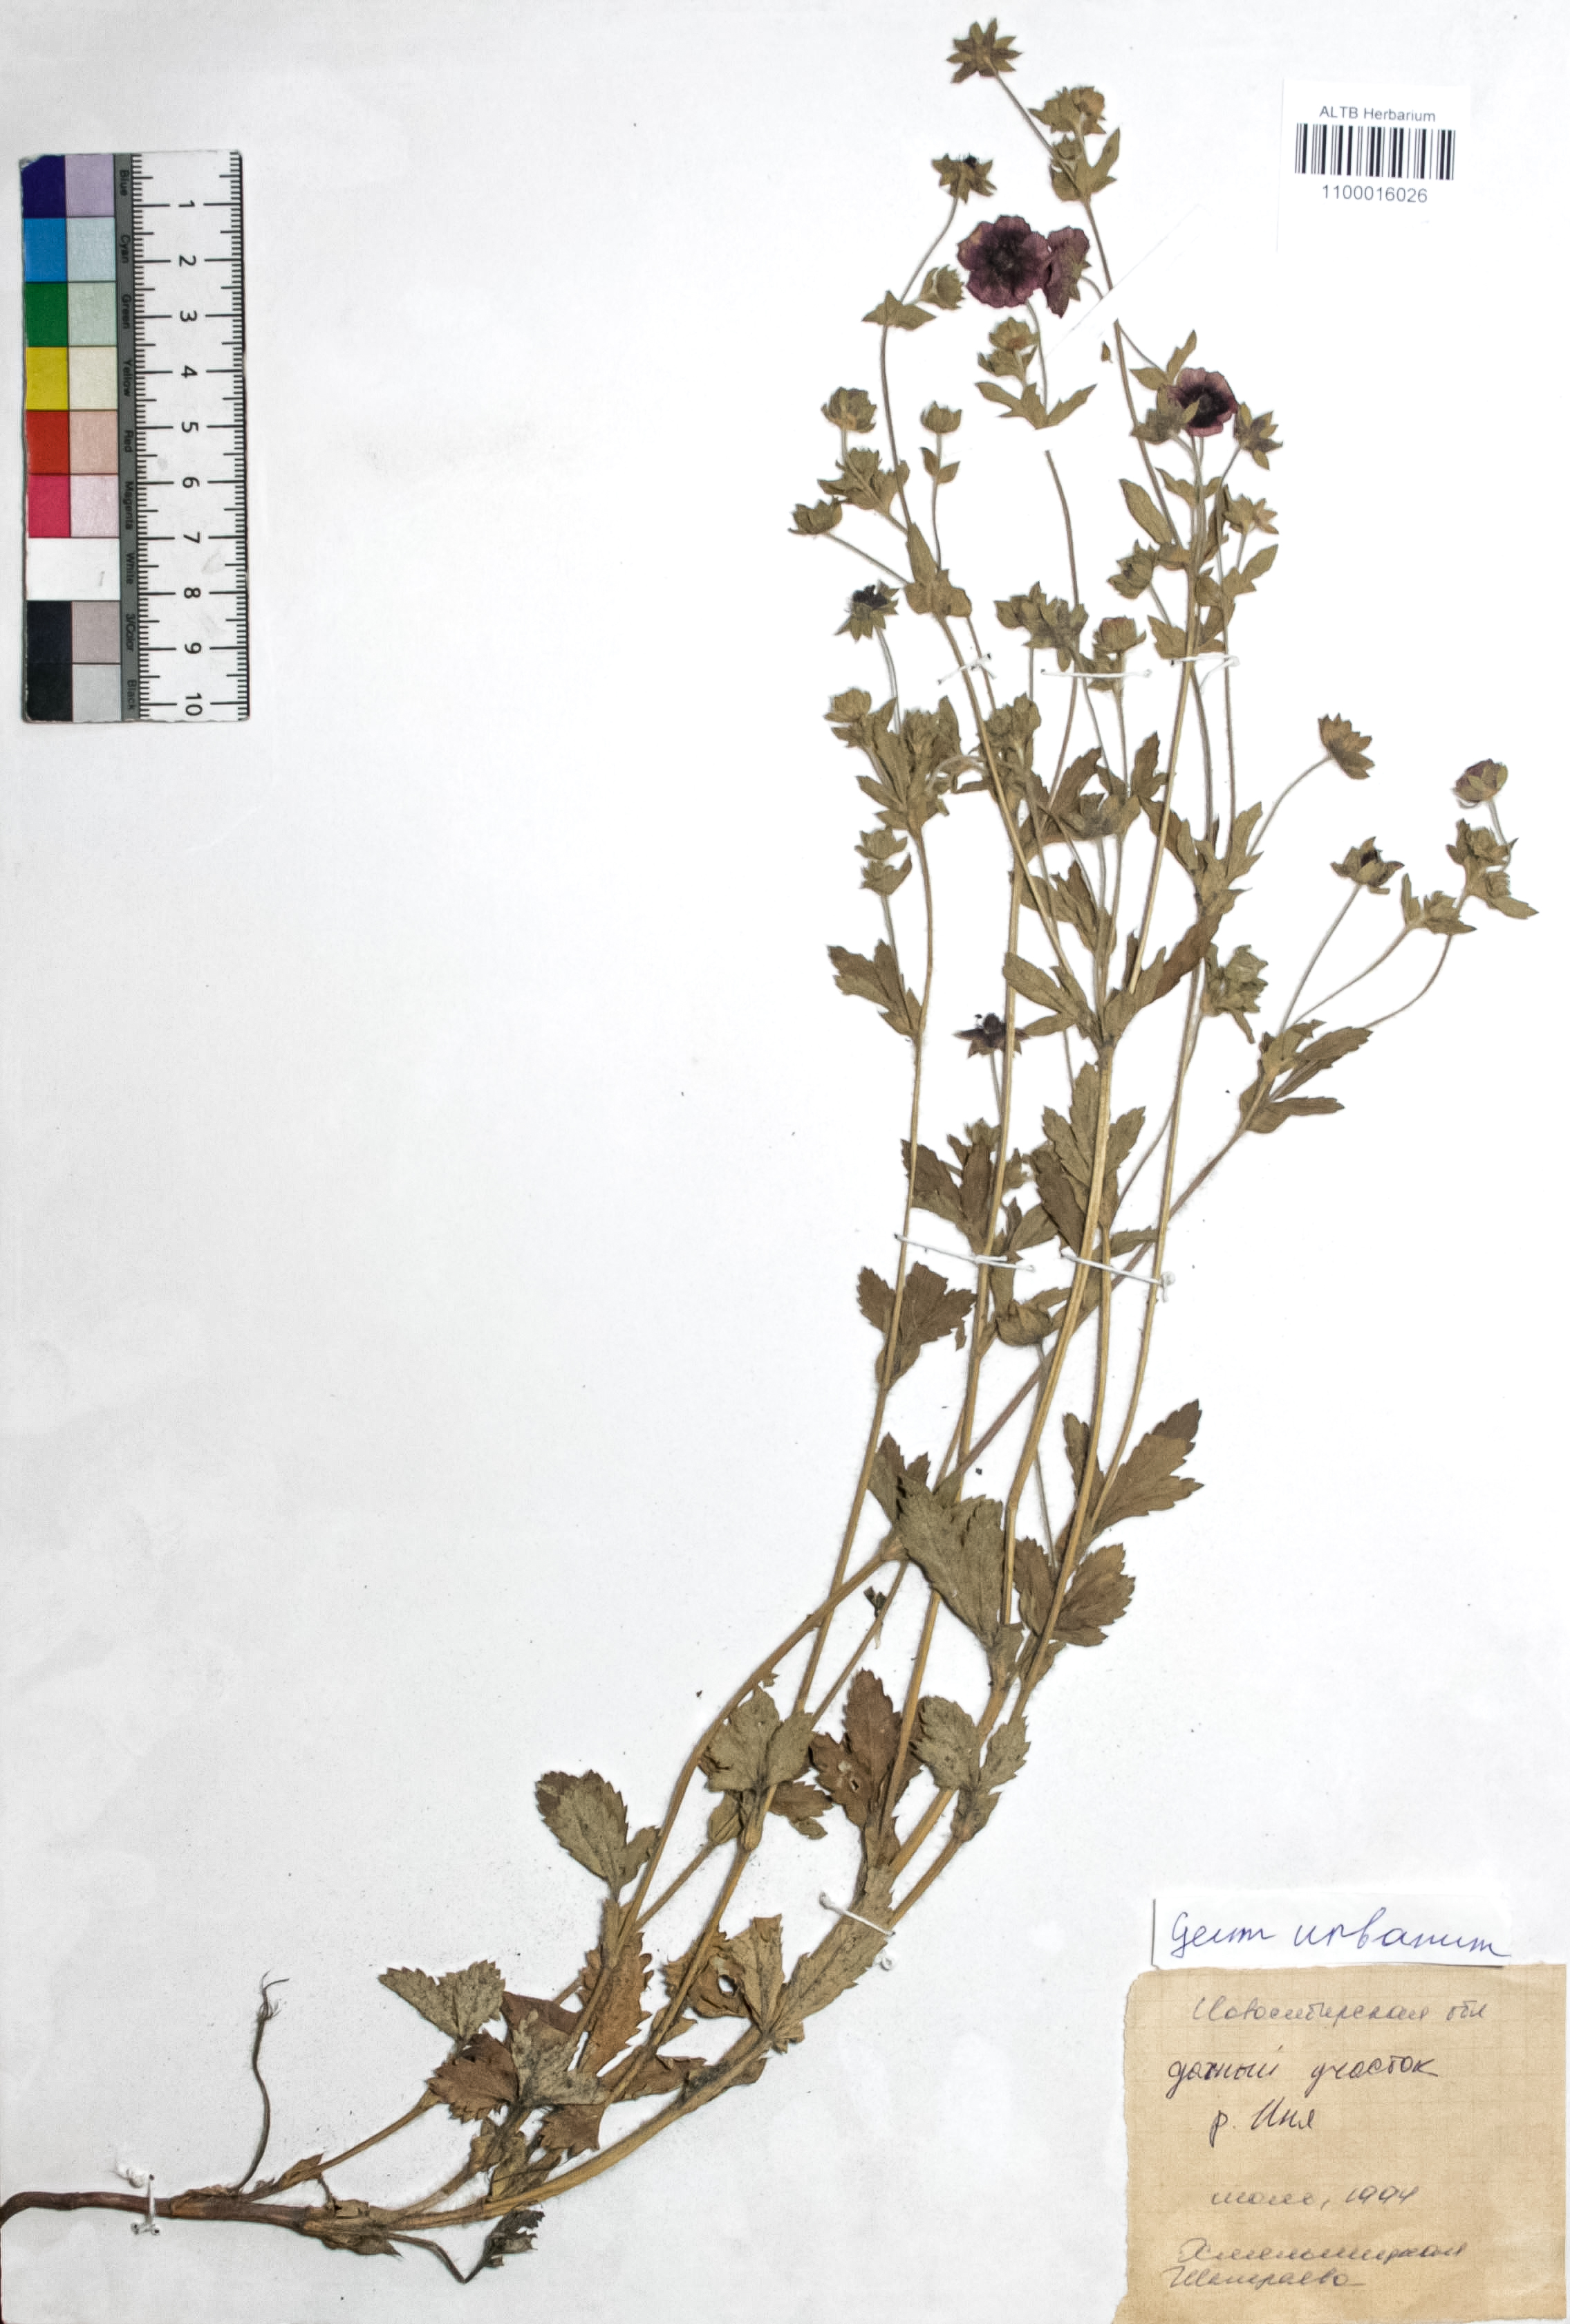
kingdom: Plantae
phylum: Tracheophyta
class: Magnoliopsida
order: Rosales
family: Rosaceae
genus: Geum
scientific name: Geum urbanum
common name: Wood avens
